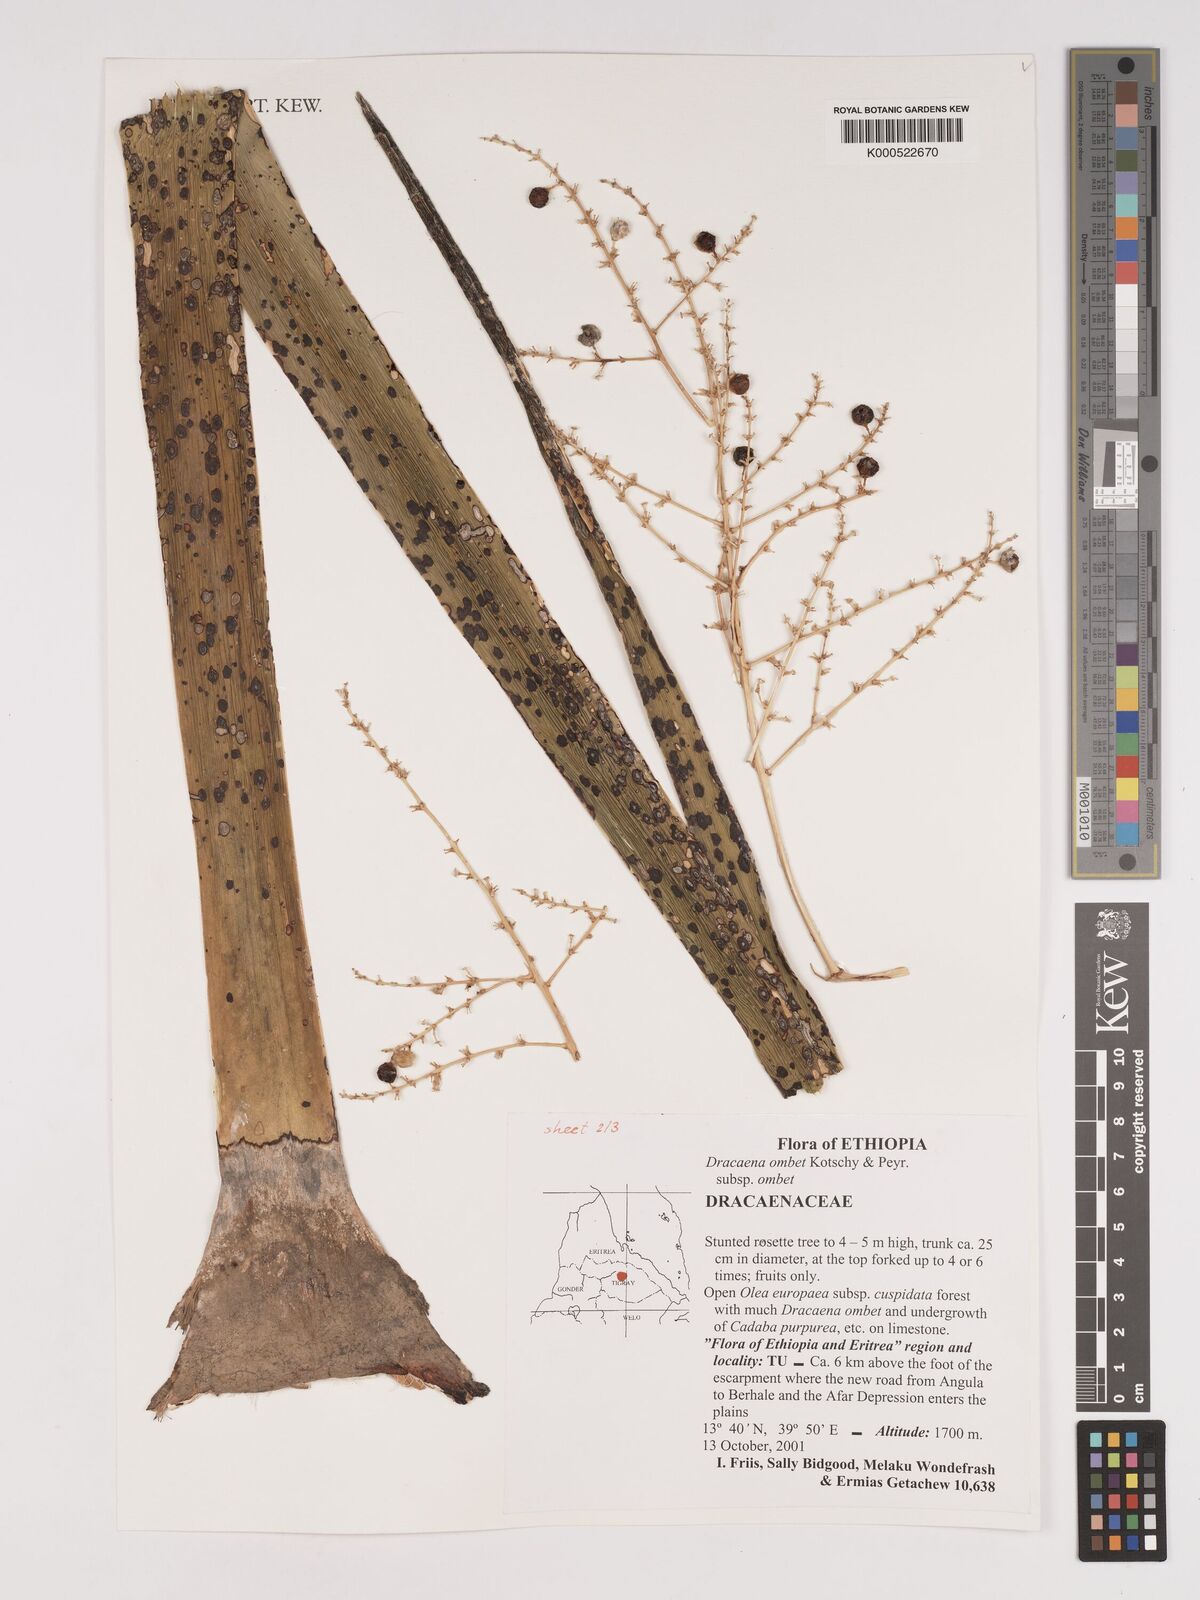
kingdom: Plantae
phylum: Tracheophyta
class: Liliopsida
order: Asparagales
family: Asparagaceae
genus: Dracaena
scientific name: Dracaena ombet
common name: Gabal elba dragon tree
